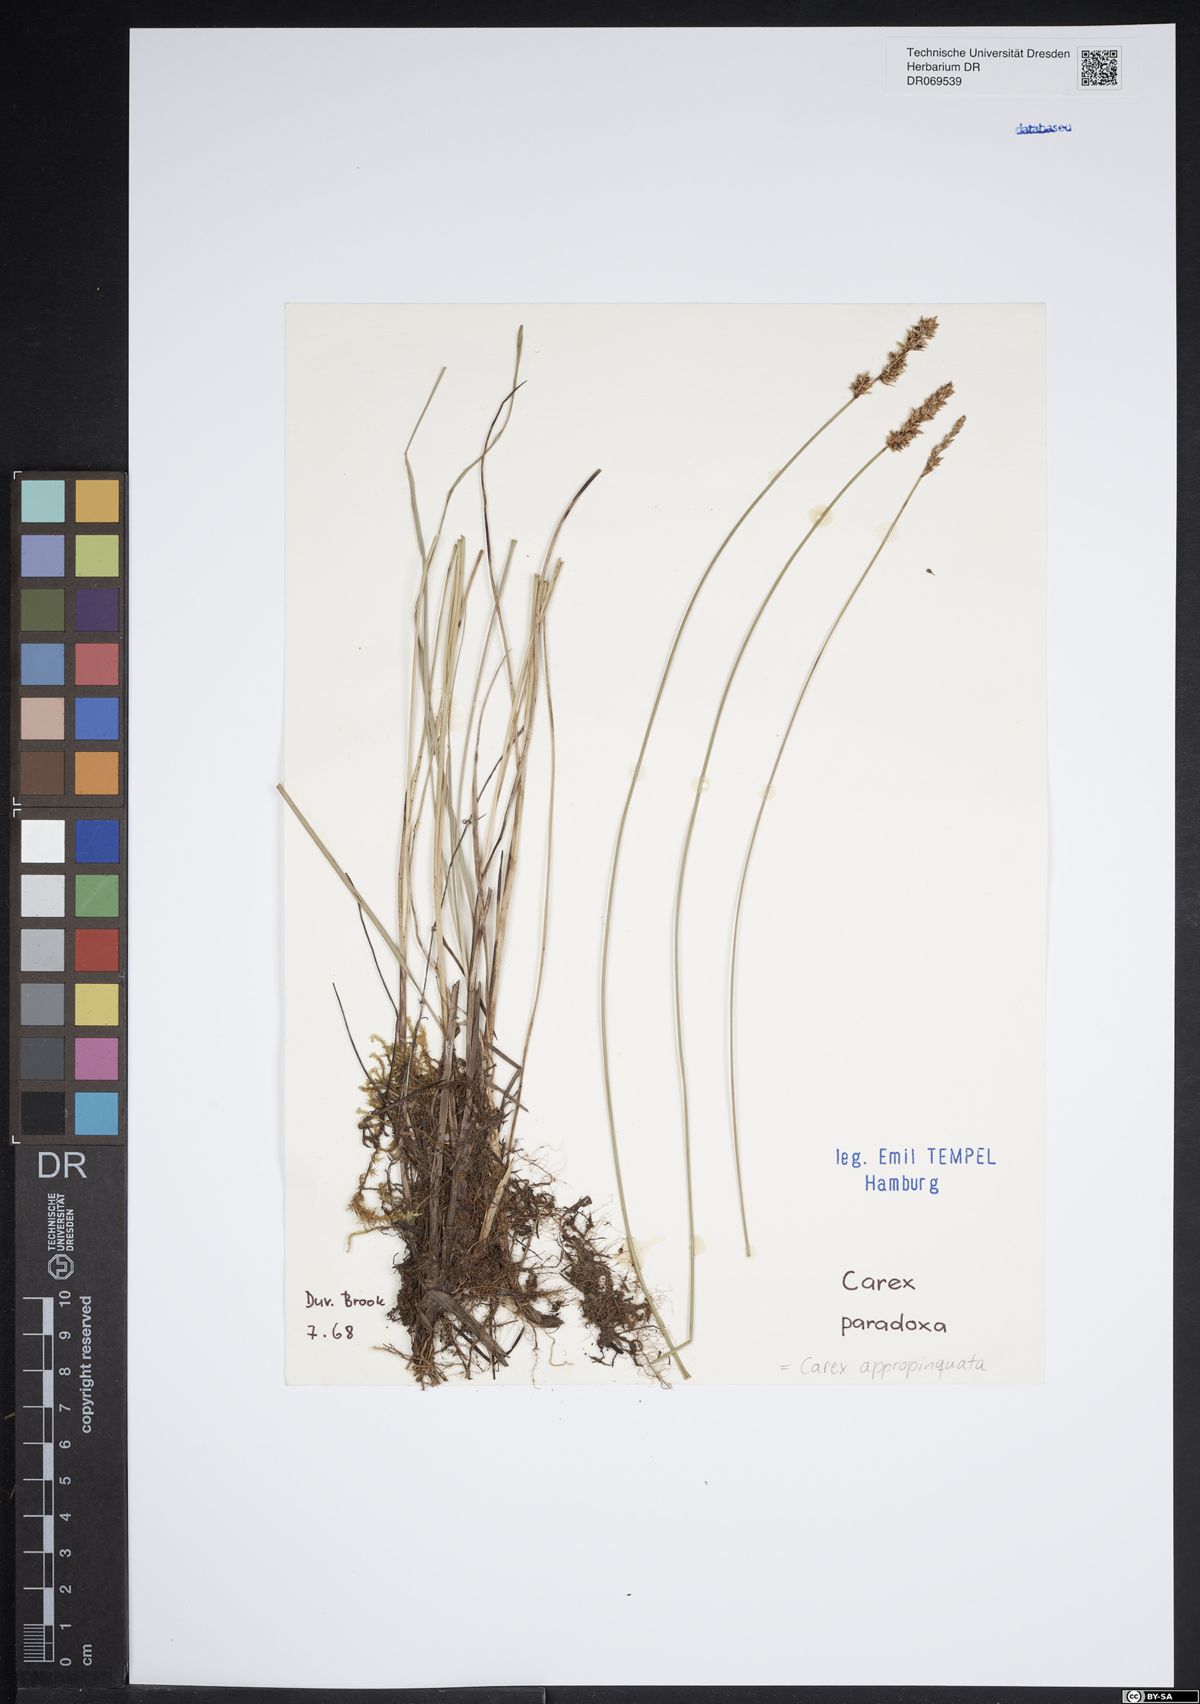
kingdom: Plantae
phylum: Tracheophyta
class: Liliopsida
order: Poales
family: Cyperaceae
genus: Carex
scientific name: Carex appropinquata
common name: Fibrous tussock-sedge
